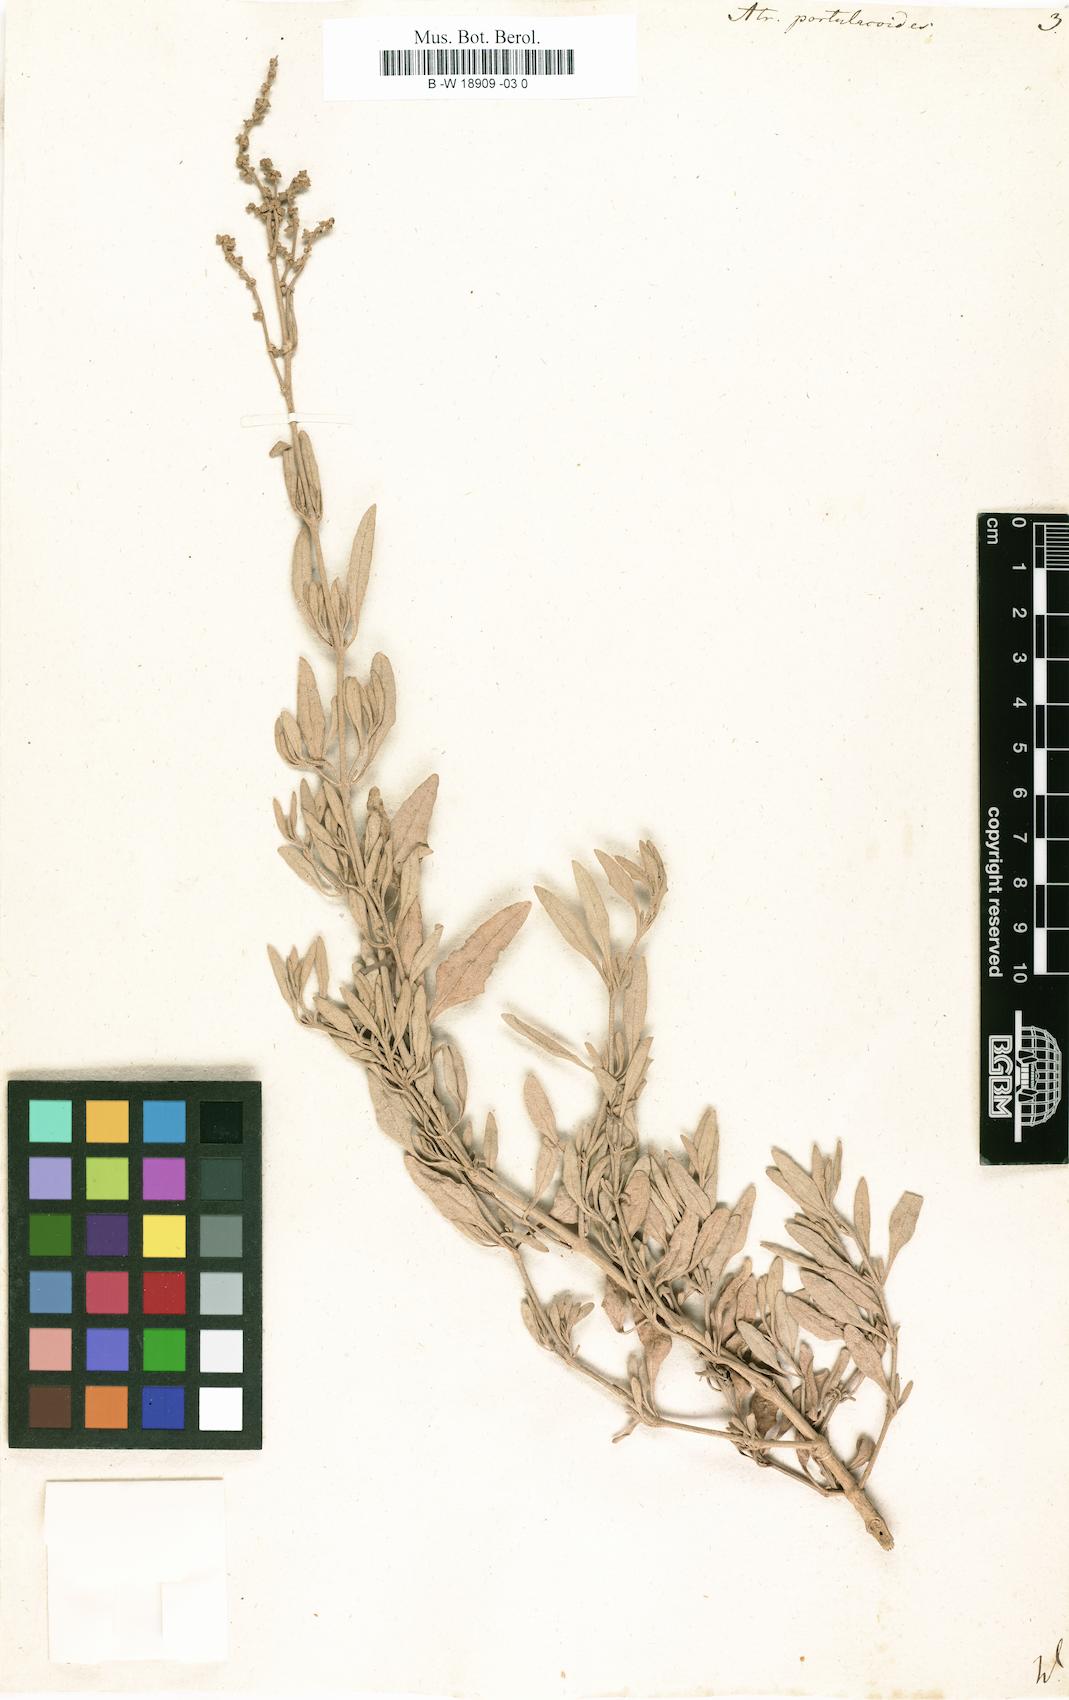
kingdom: Plantae
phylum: Tracheophyta
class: Magnoliopsida
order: Caryophyllales
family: Amaranthaceae
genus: Halimione
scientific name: Halimione portulacoides
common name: Sea-purslane
